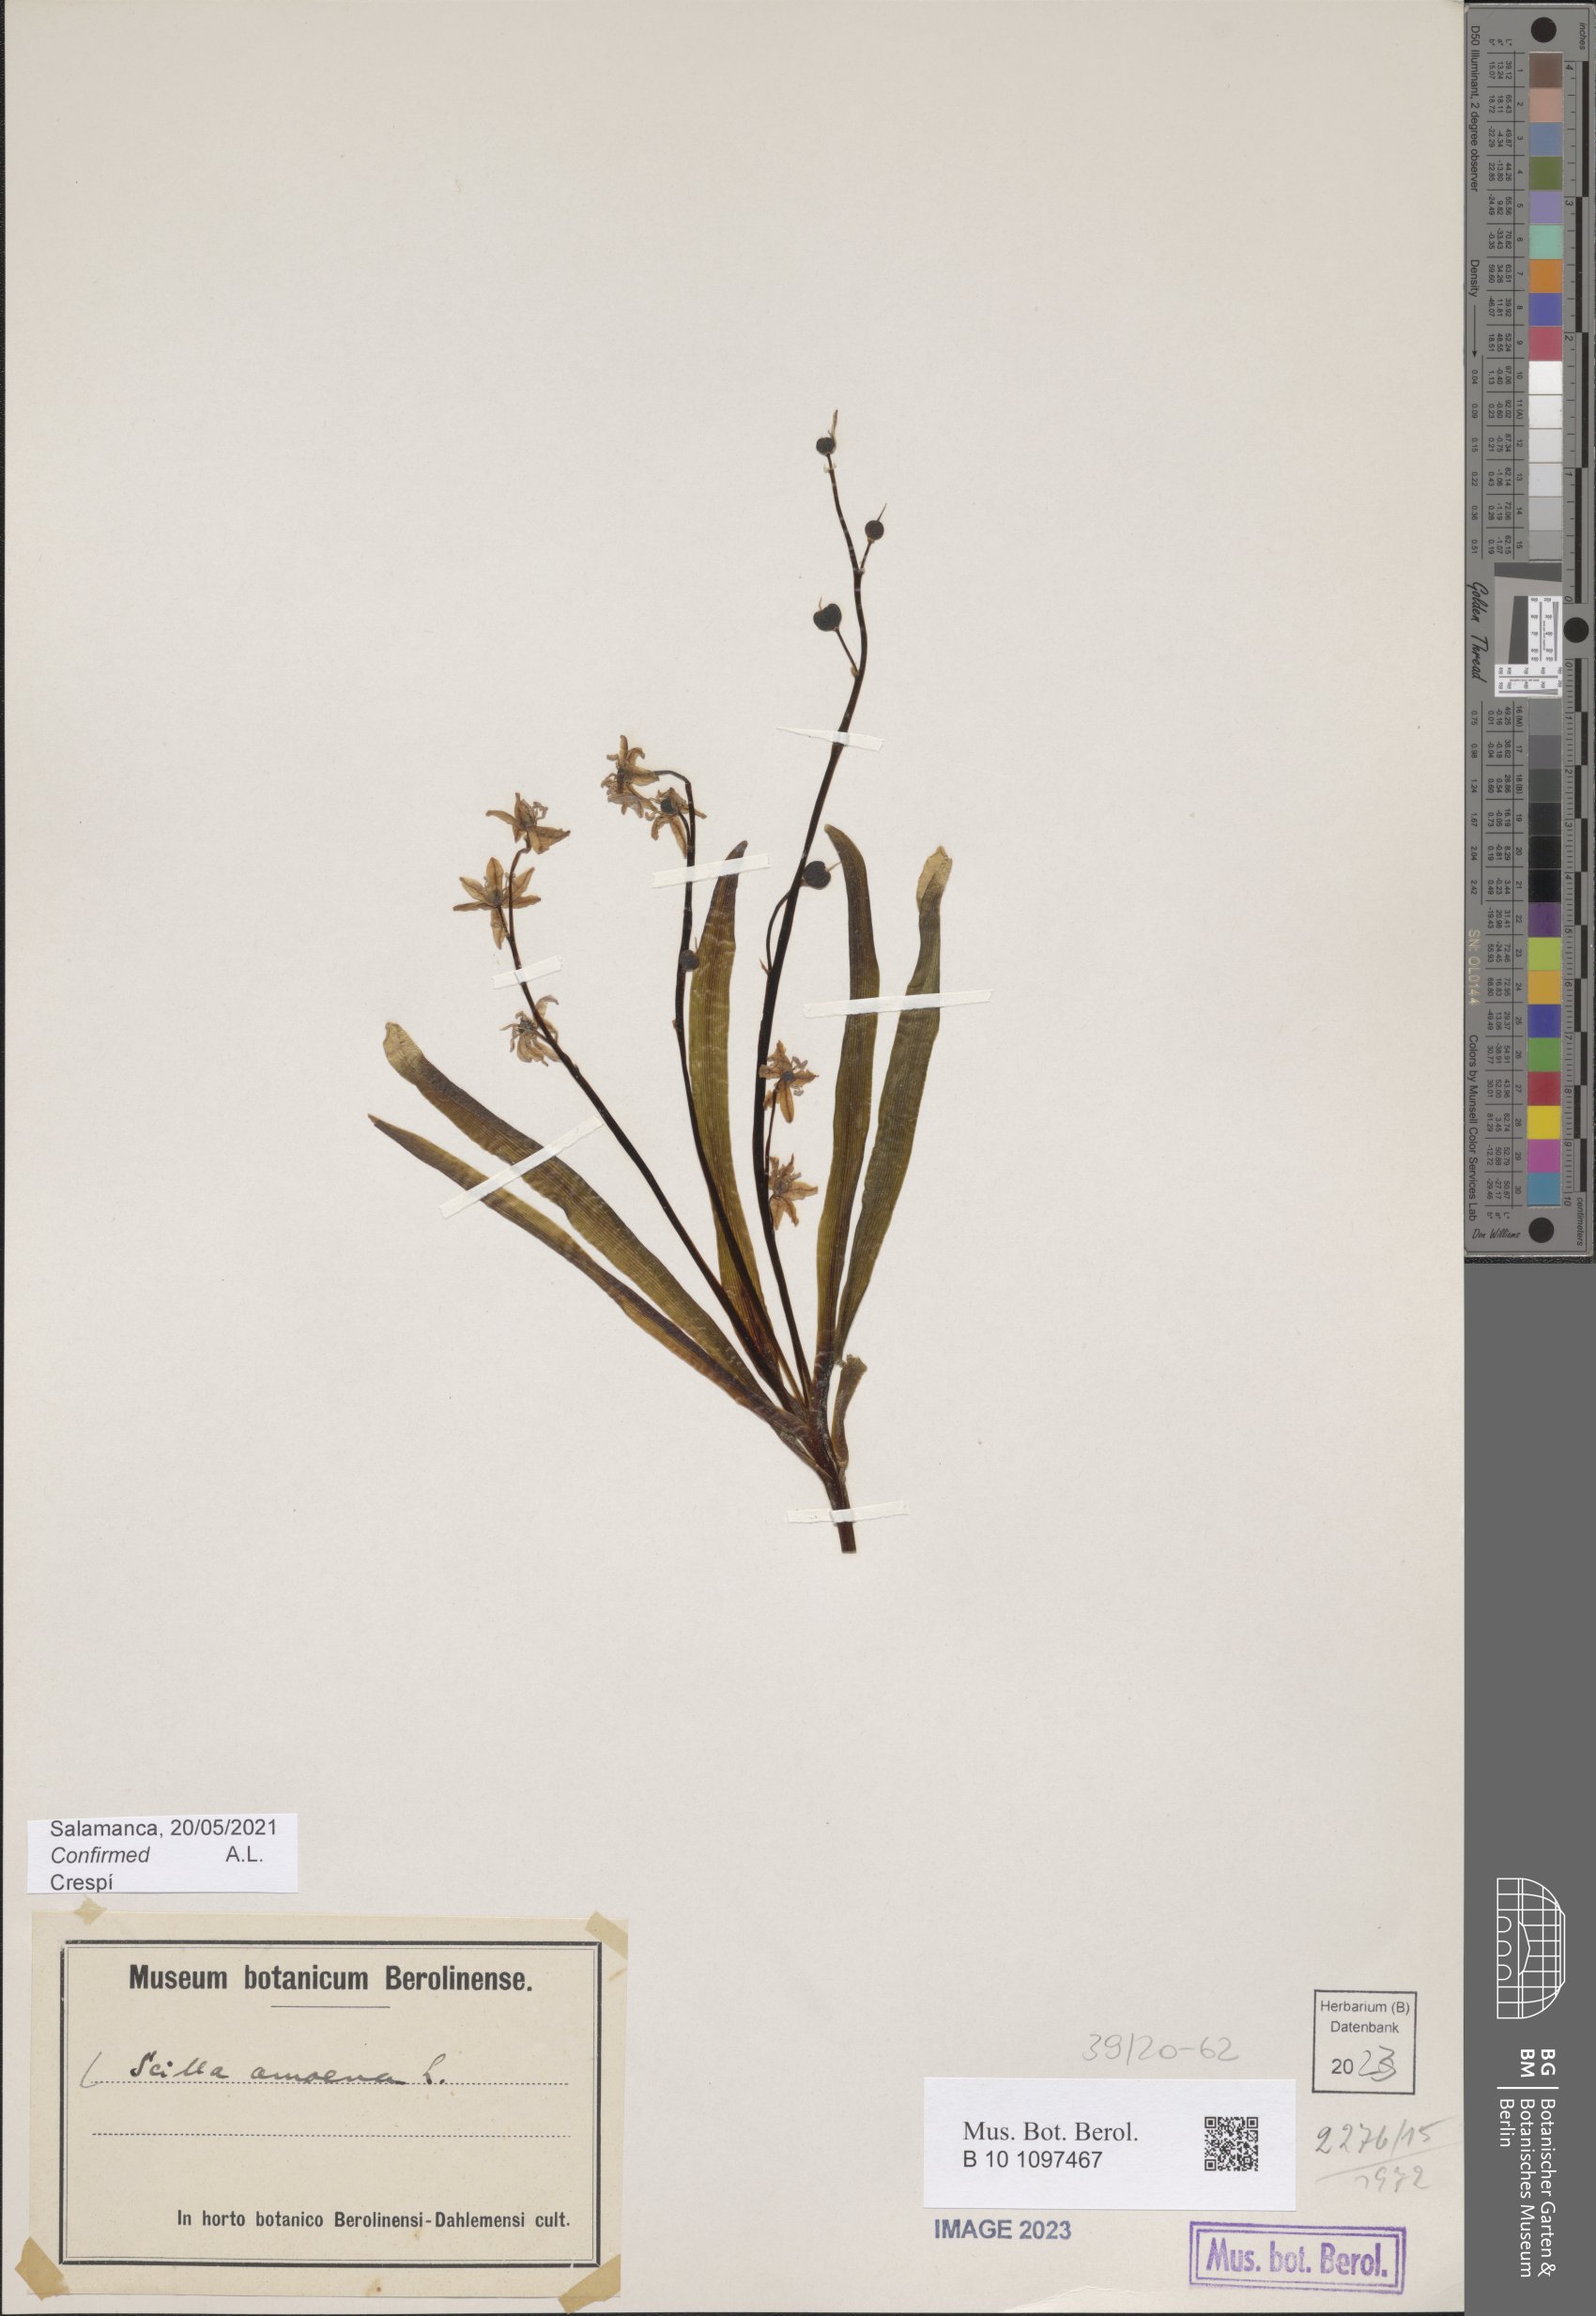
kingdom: Plantae
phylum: Tracheophyta
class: Liliopsida
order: Asparagales
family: Asparagaceae
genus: Scilla
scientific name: Scilla amoena
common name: Star-hyacinth
